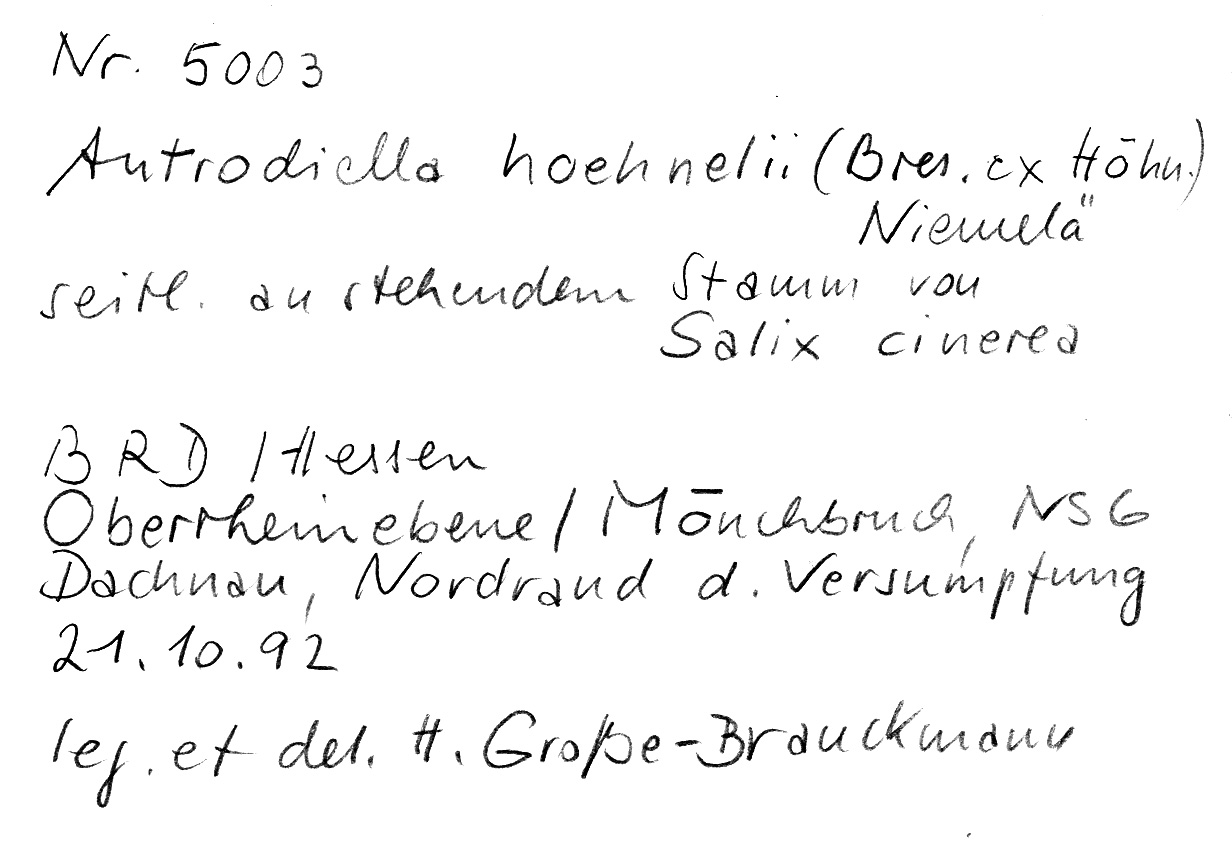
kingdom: Fungi
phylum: Basidiomycota
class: Agaricomycetes
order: Polyporales
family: Steccherinaceae
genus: Antrodiella
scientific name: Antrodiella serpula
